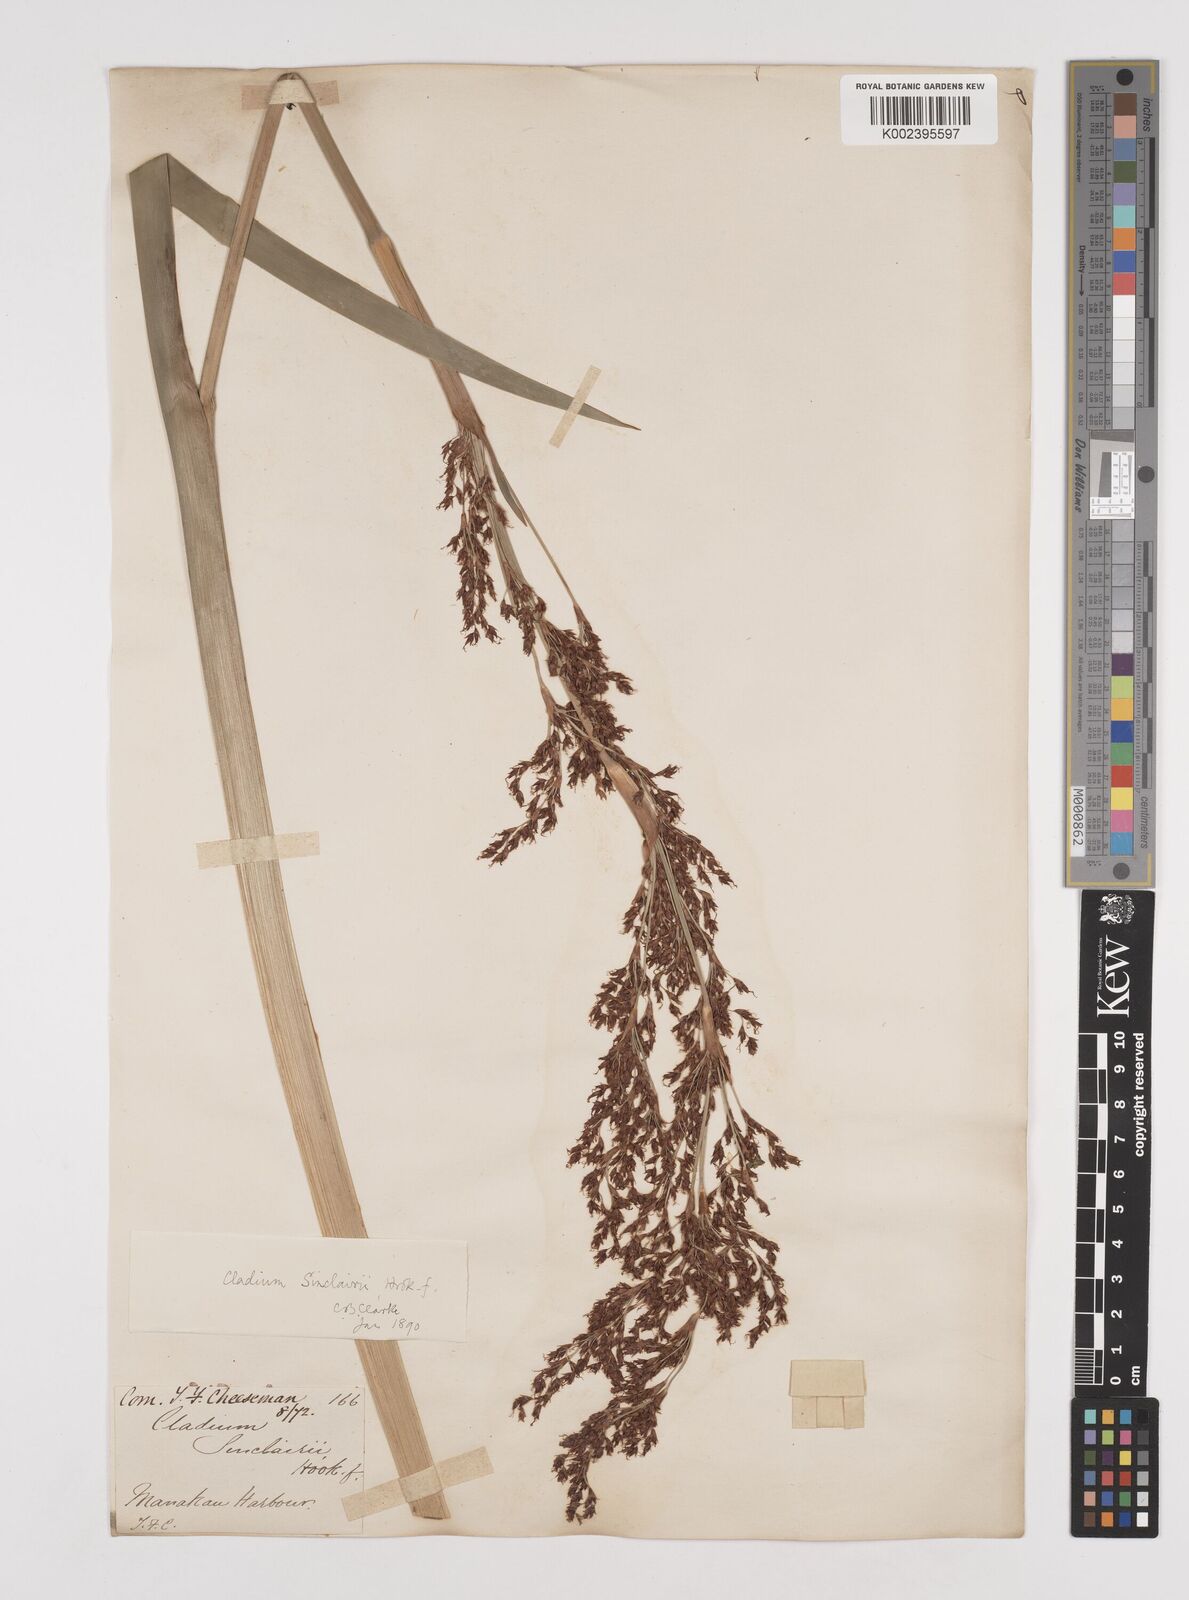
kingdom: Plantae
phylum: Tracheophyta
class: Liliopsida
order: Poales
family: Cyperaceae
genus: Machaerina
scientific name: Machaerina sinclairii
